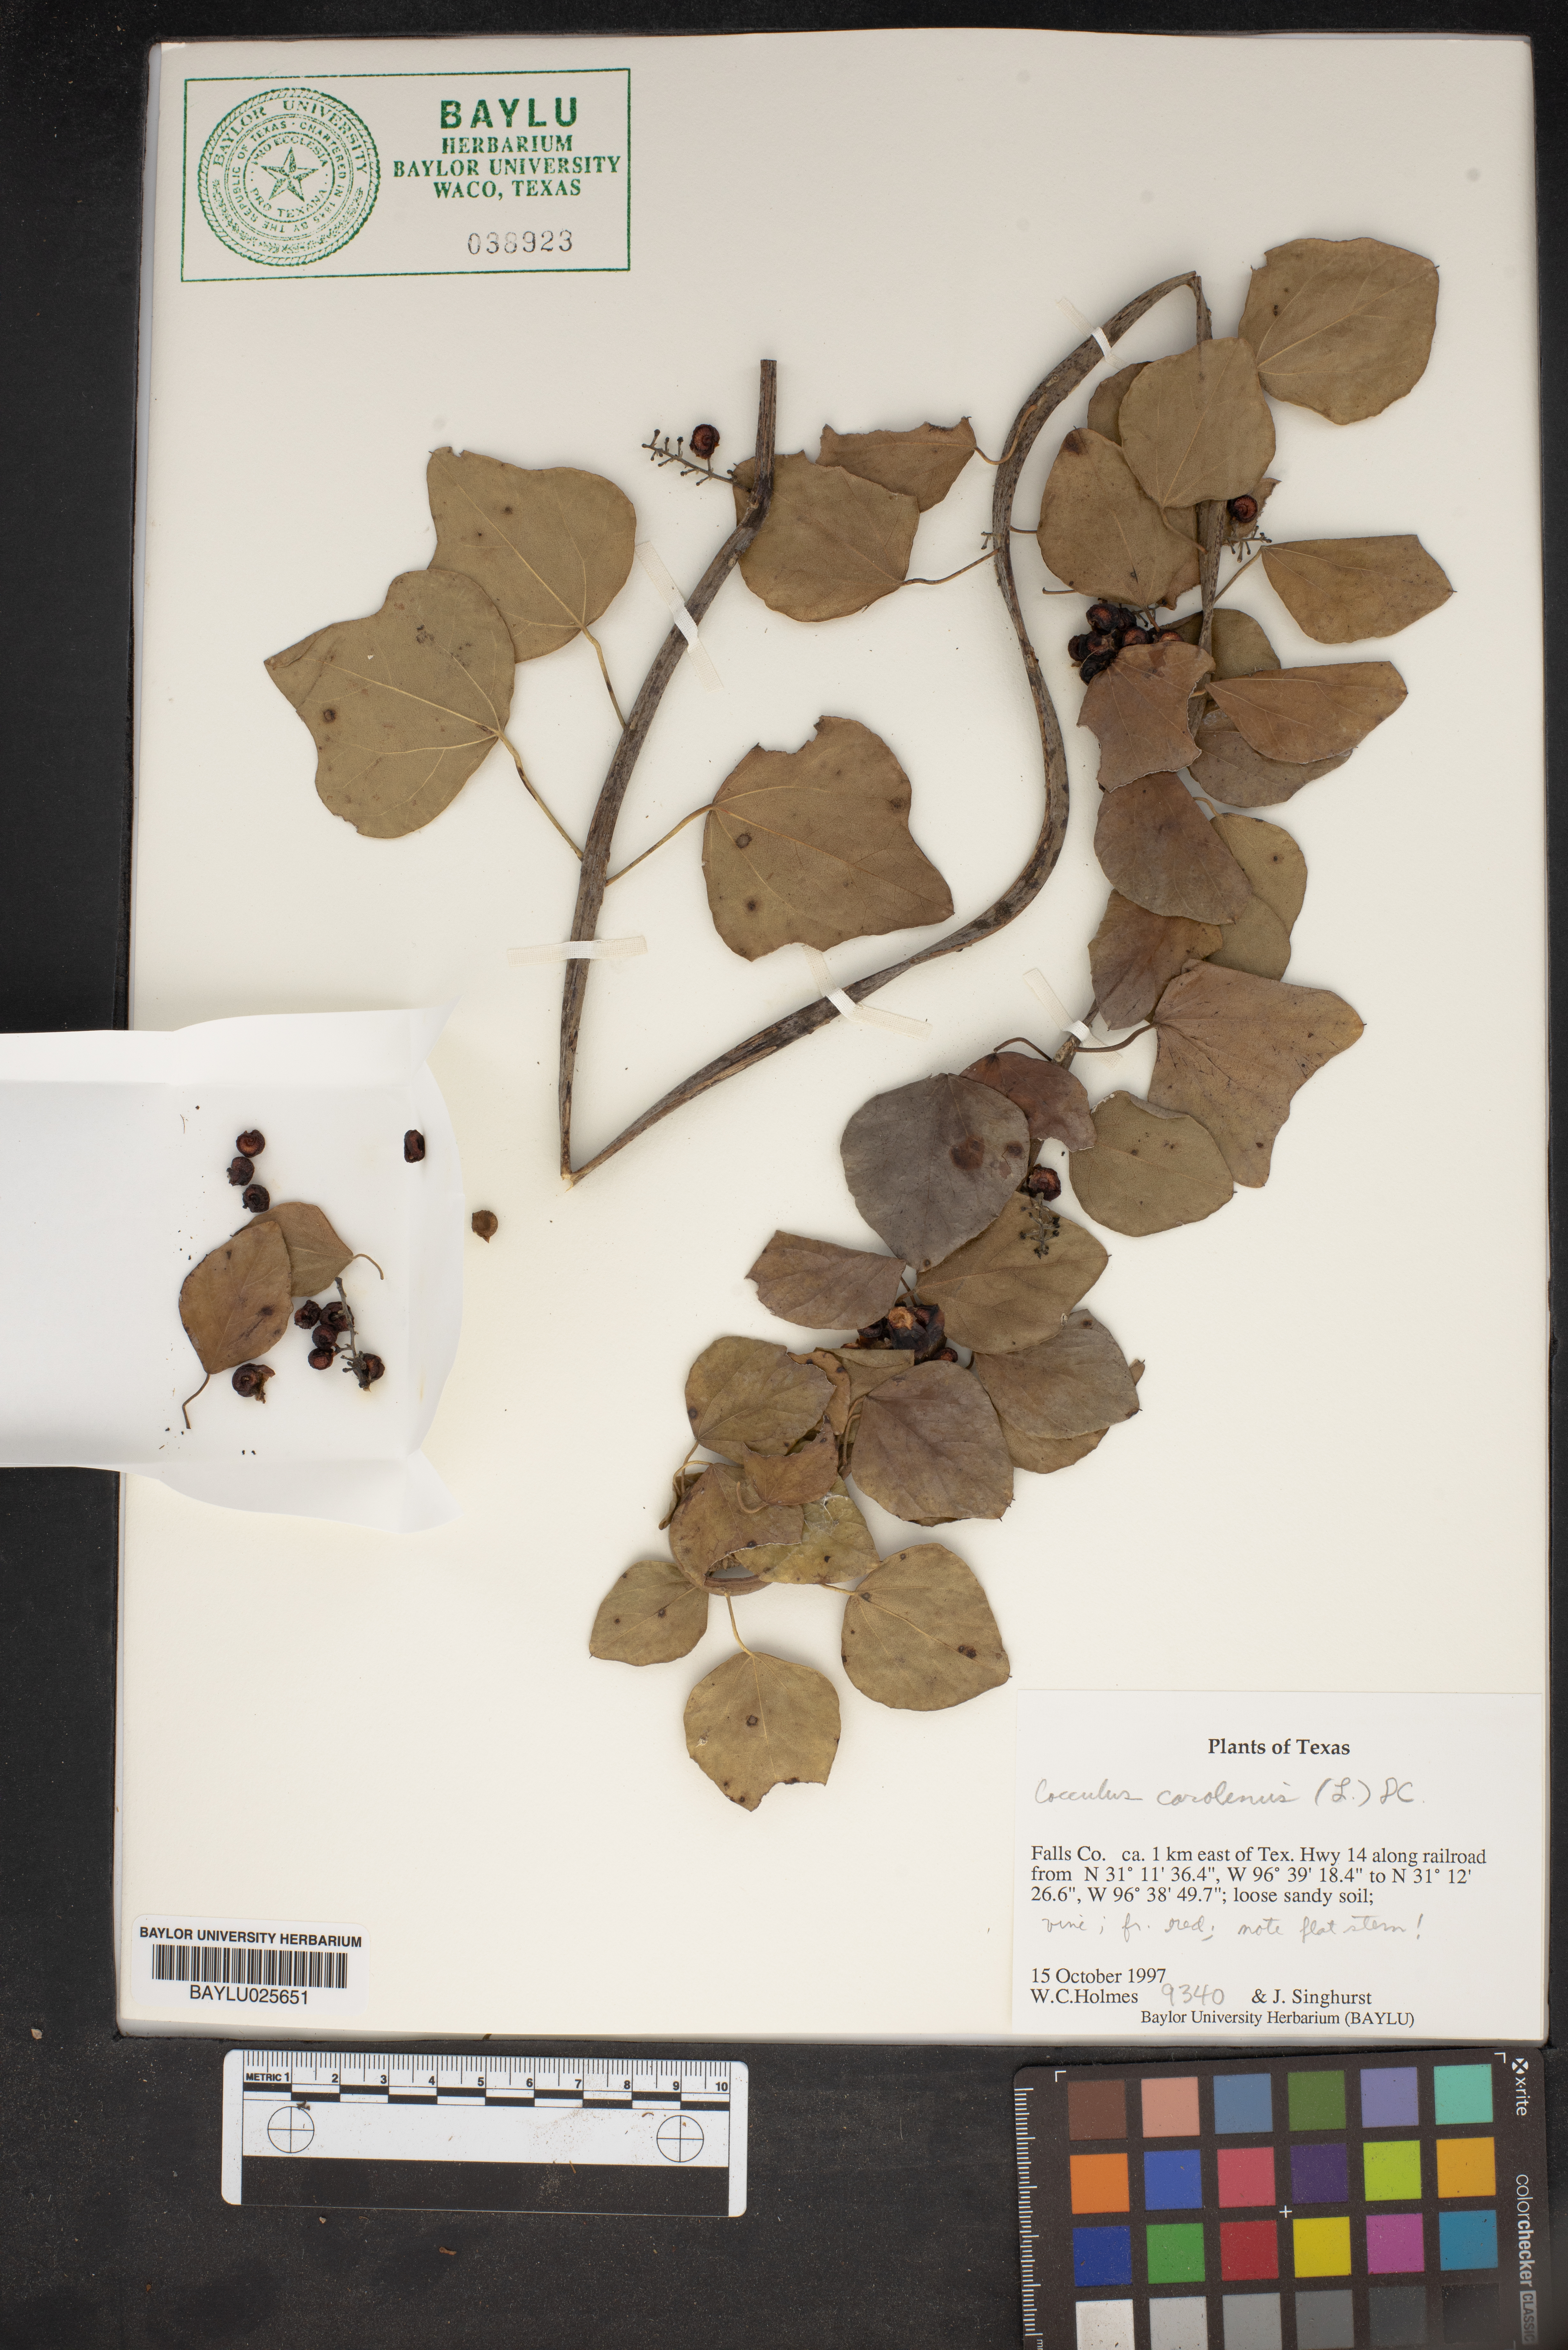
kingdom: Plantae
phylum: Tracheophyta
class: Magnoliopsida
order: Ranunculales
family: Menispermaceae
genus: Cocculus
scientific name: Cocculus carolinus
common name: Carolina moonseed
